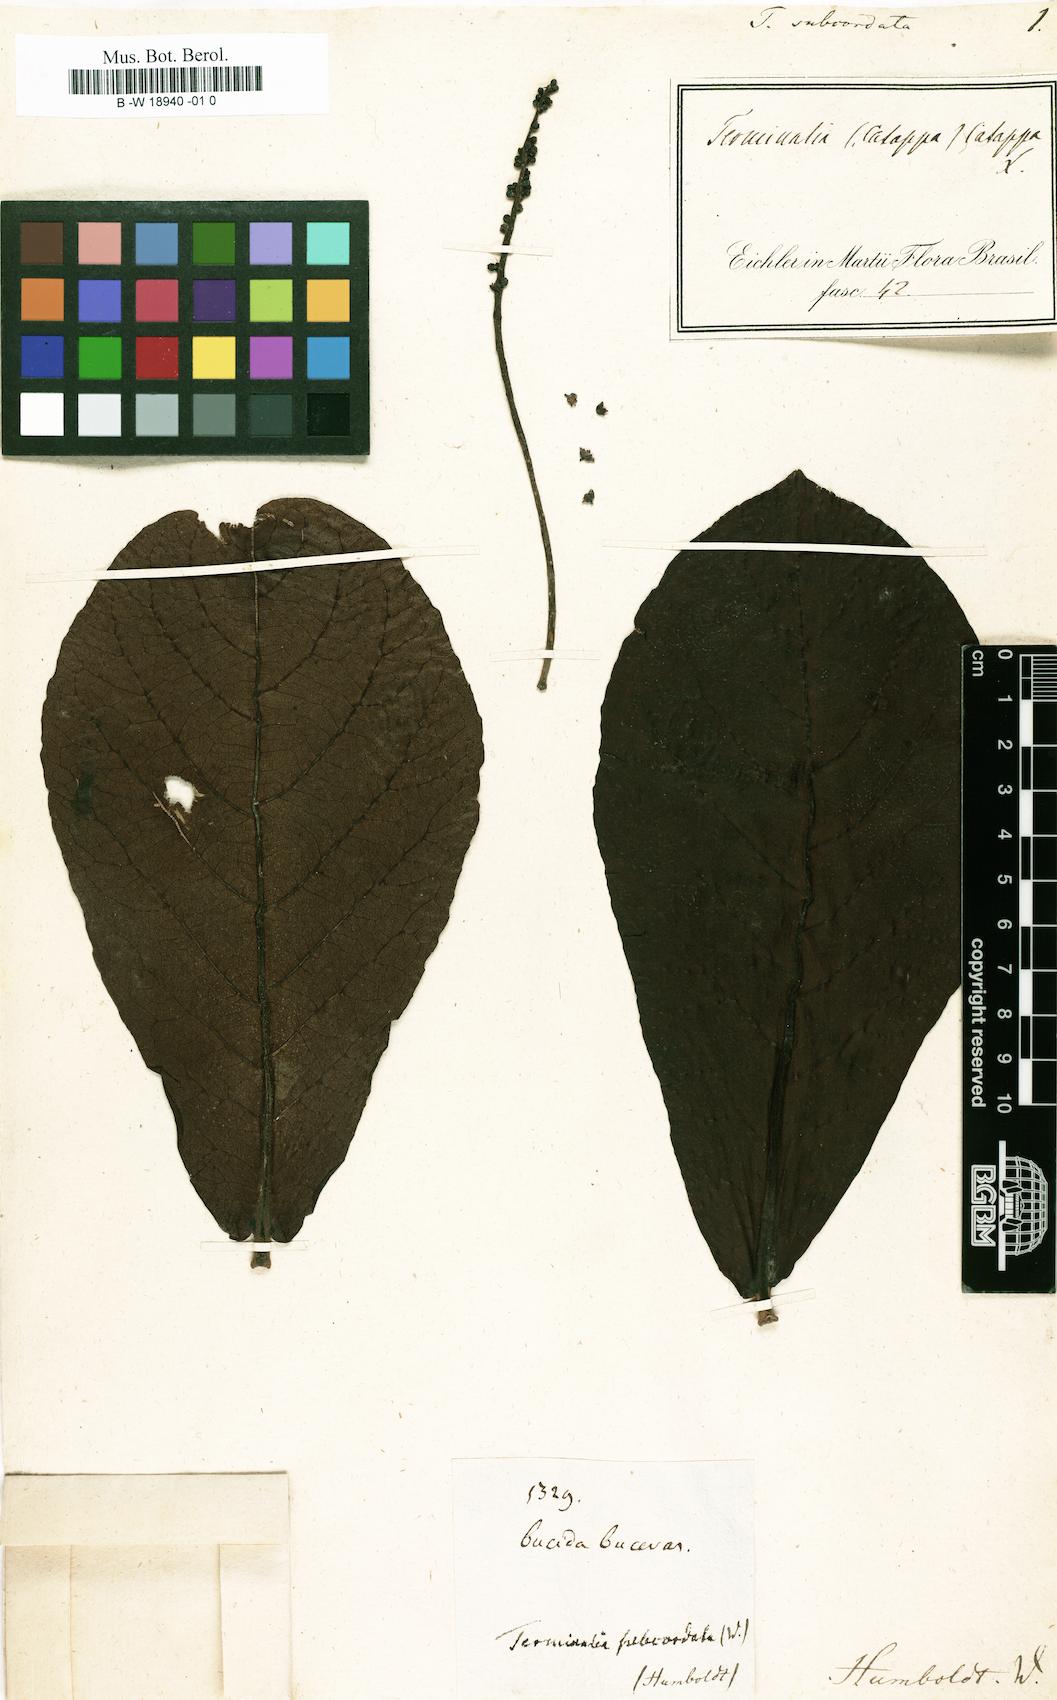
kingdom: Plantae
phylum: Tracheophyta
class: Magnoliopsida
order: Myrtales
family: Combretaceae
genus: Terminalia
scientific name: Terminalia catappa
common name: Tropical almond
